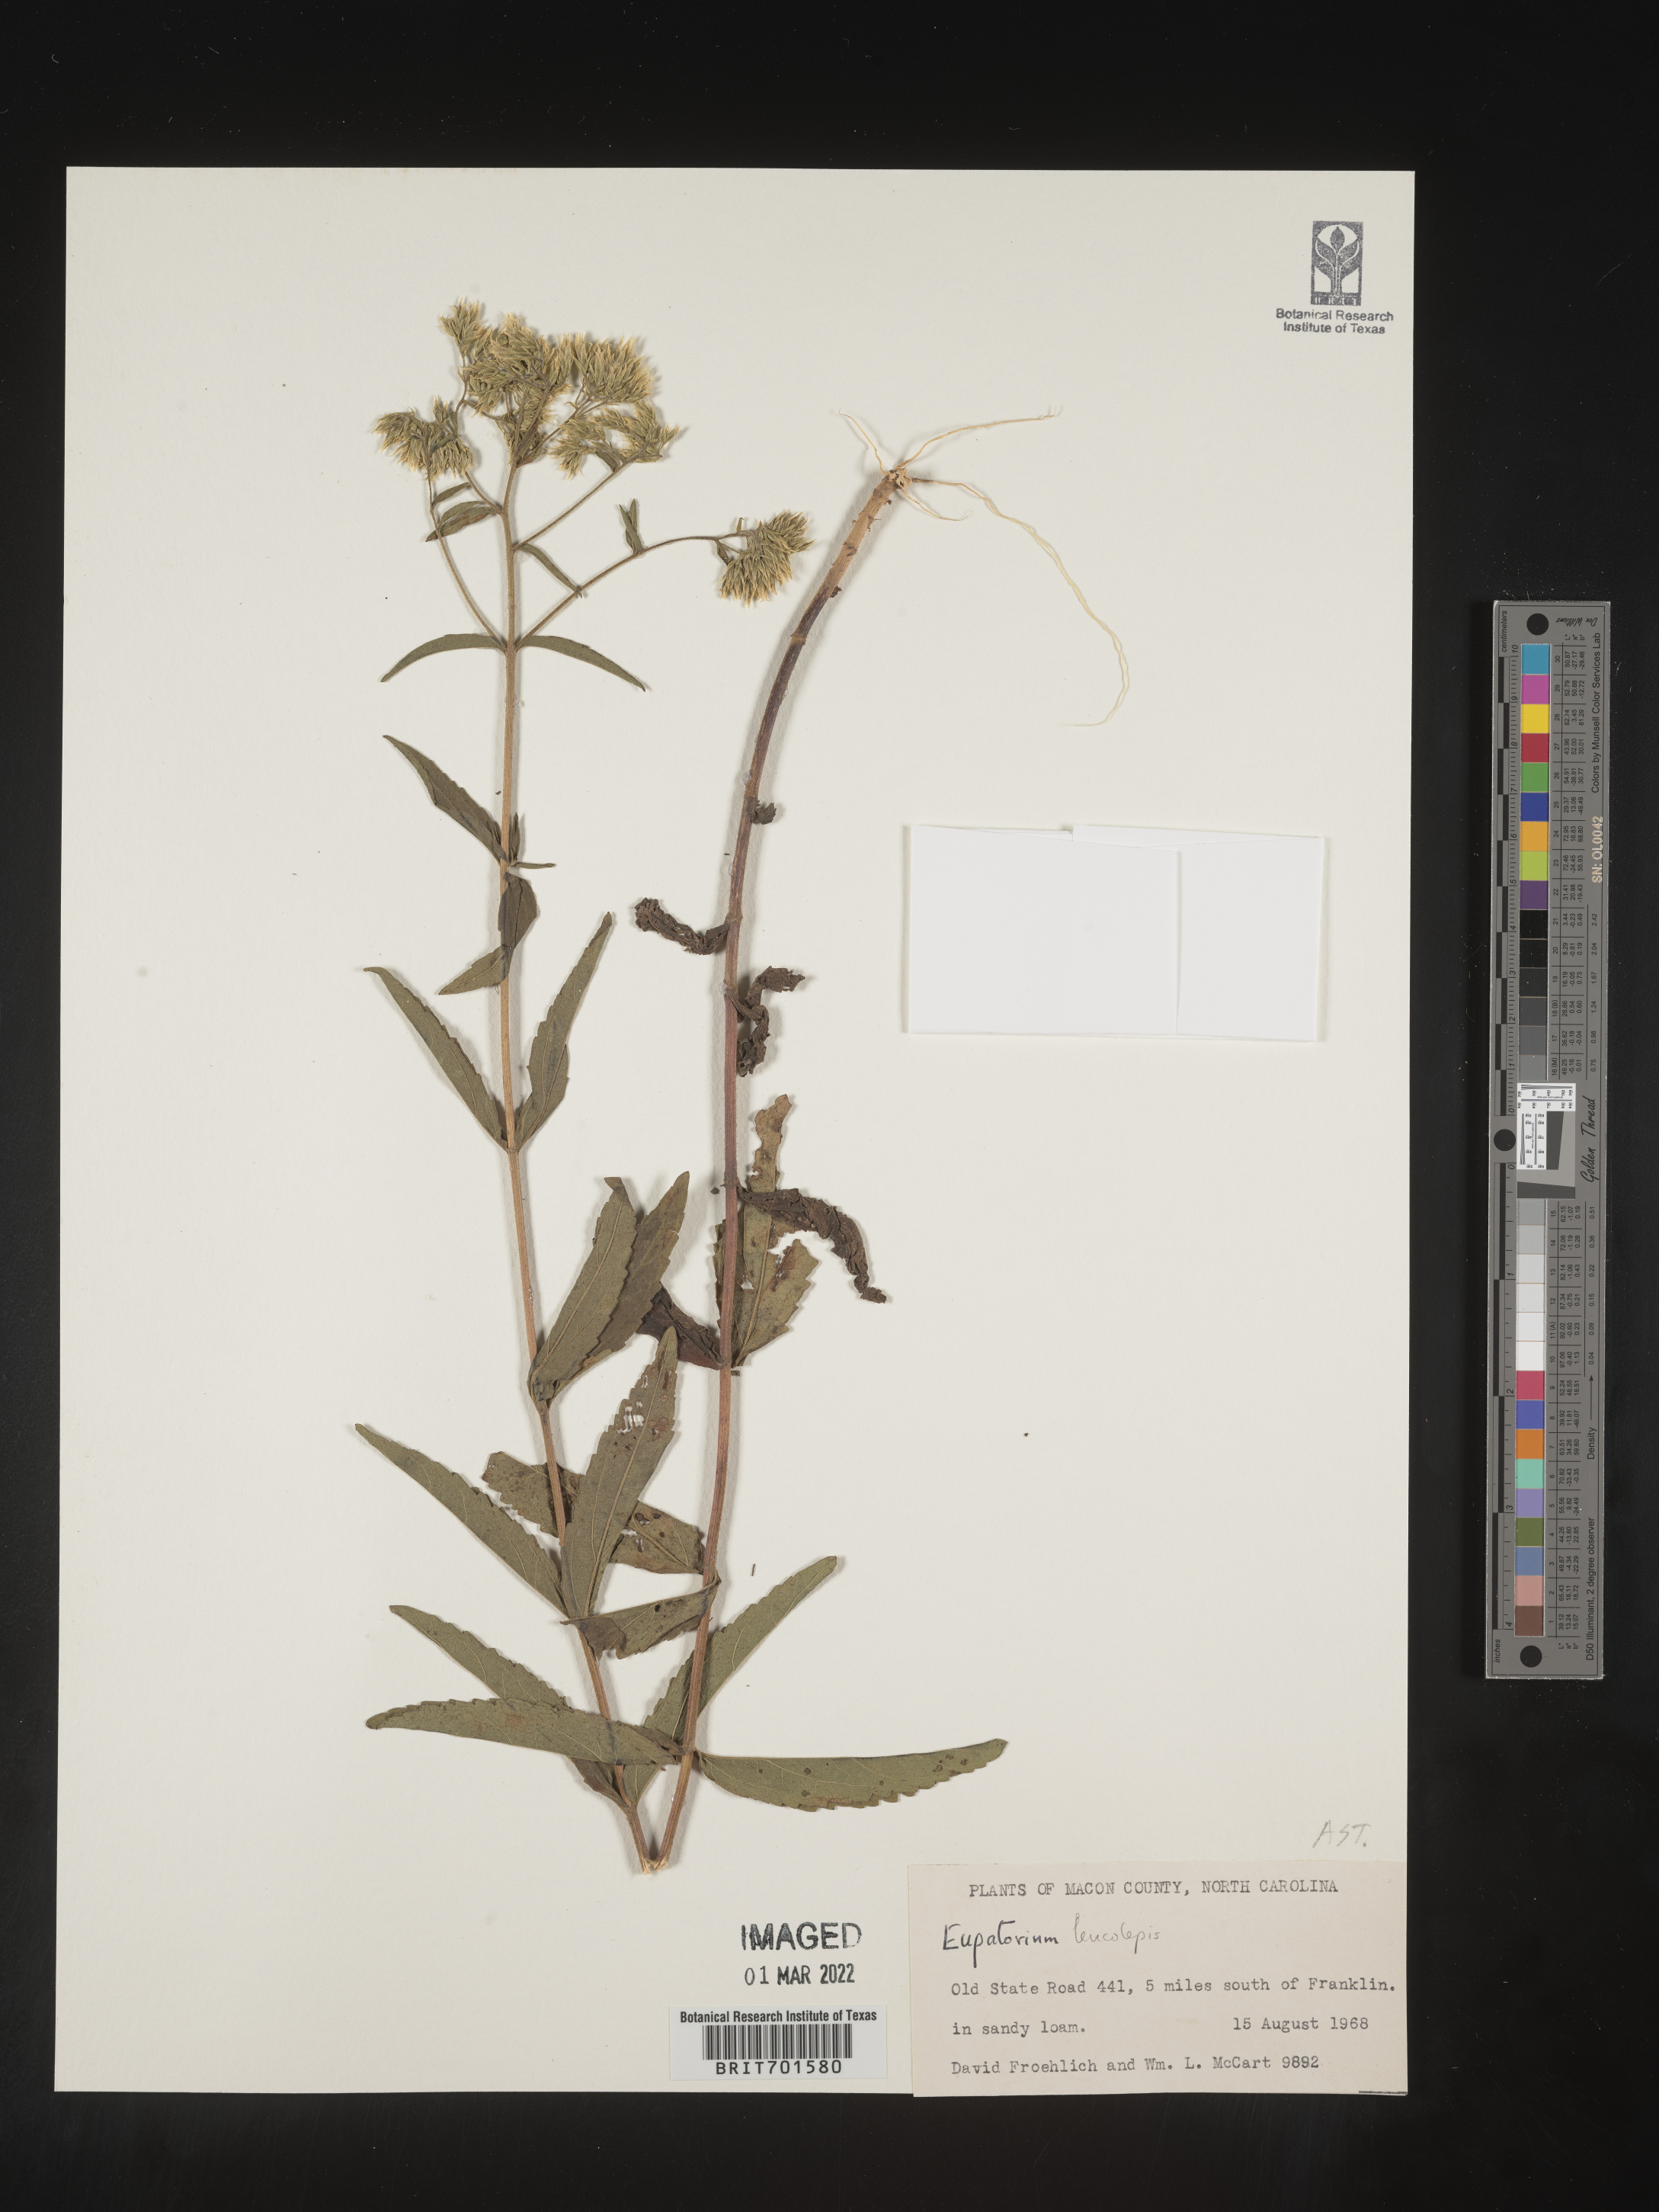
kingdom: Plantae
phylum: Tracheophyta
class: Magnoliopsida
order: Asterales
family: Asteraceae
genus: Eupatorium
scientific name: Eupatorium leucolepis
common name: Justiceweed
